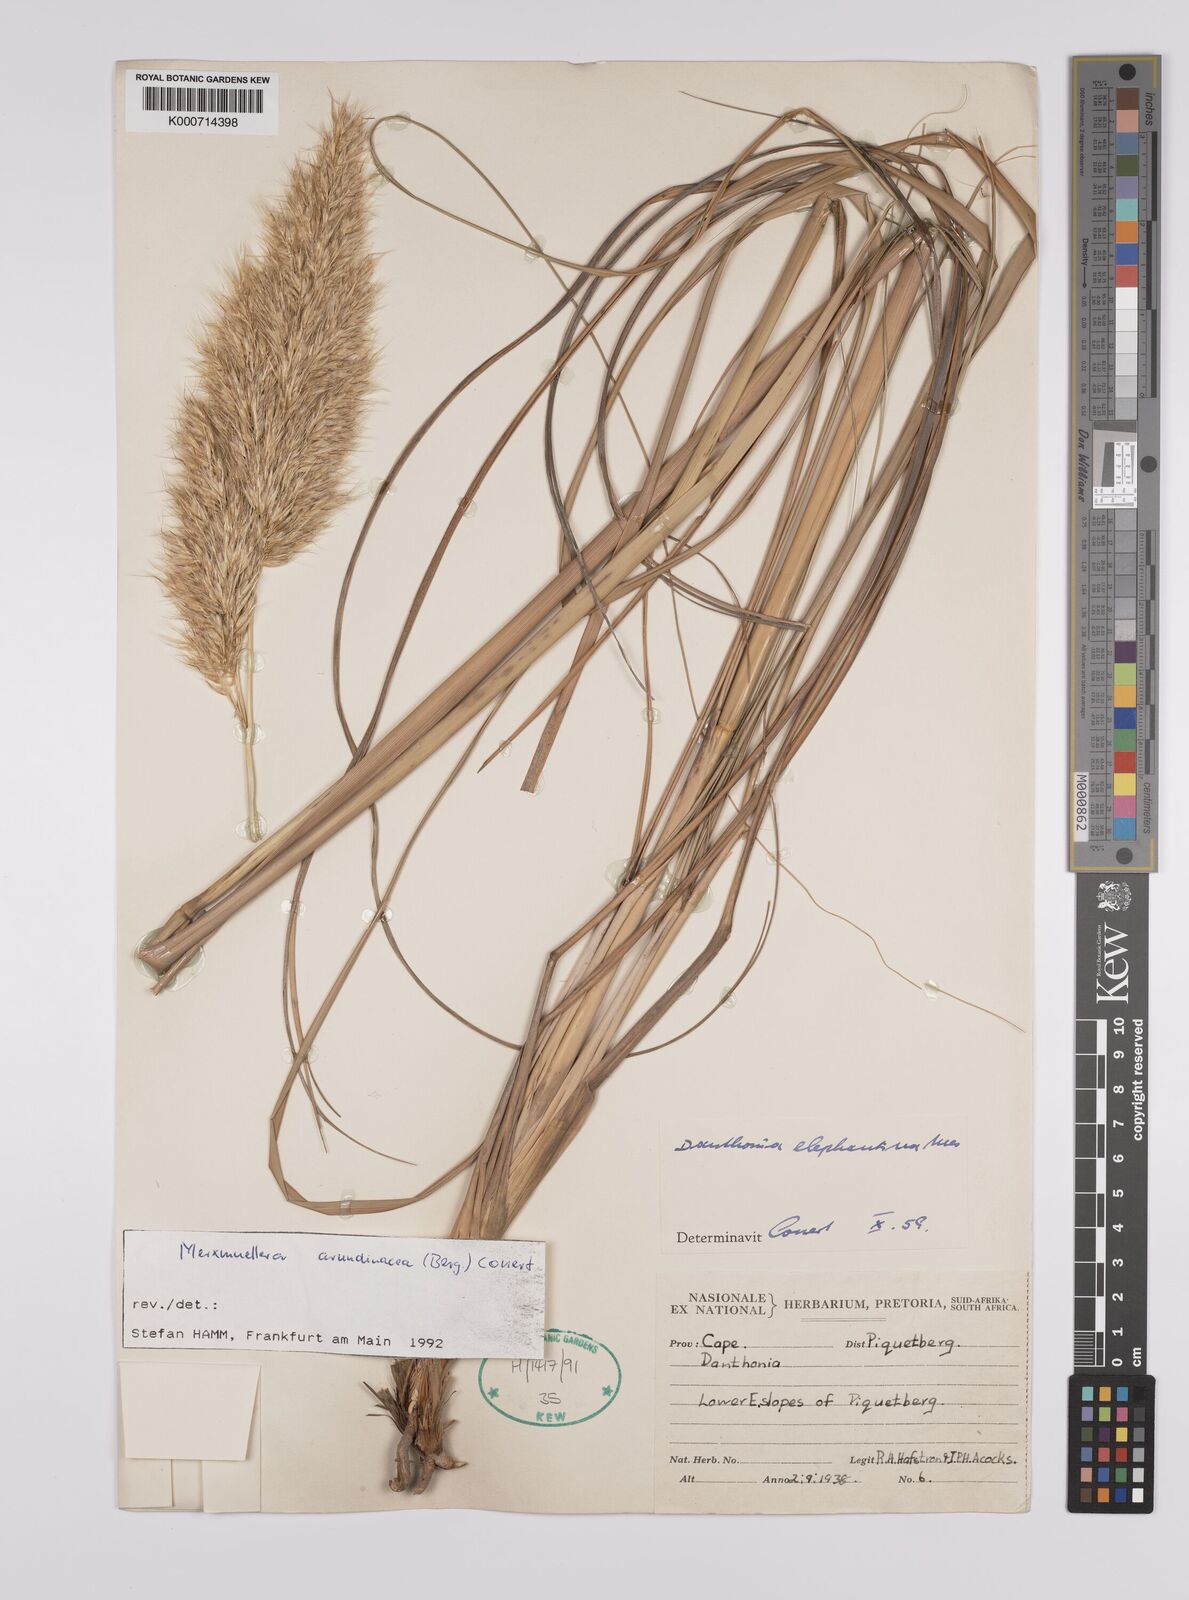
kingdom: Plantae
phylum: Tracheophyta
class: Liliopsida
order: Poales
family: Poaceae
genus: Rytidosperma
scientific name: Rytidosperma
